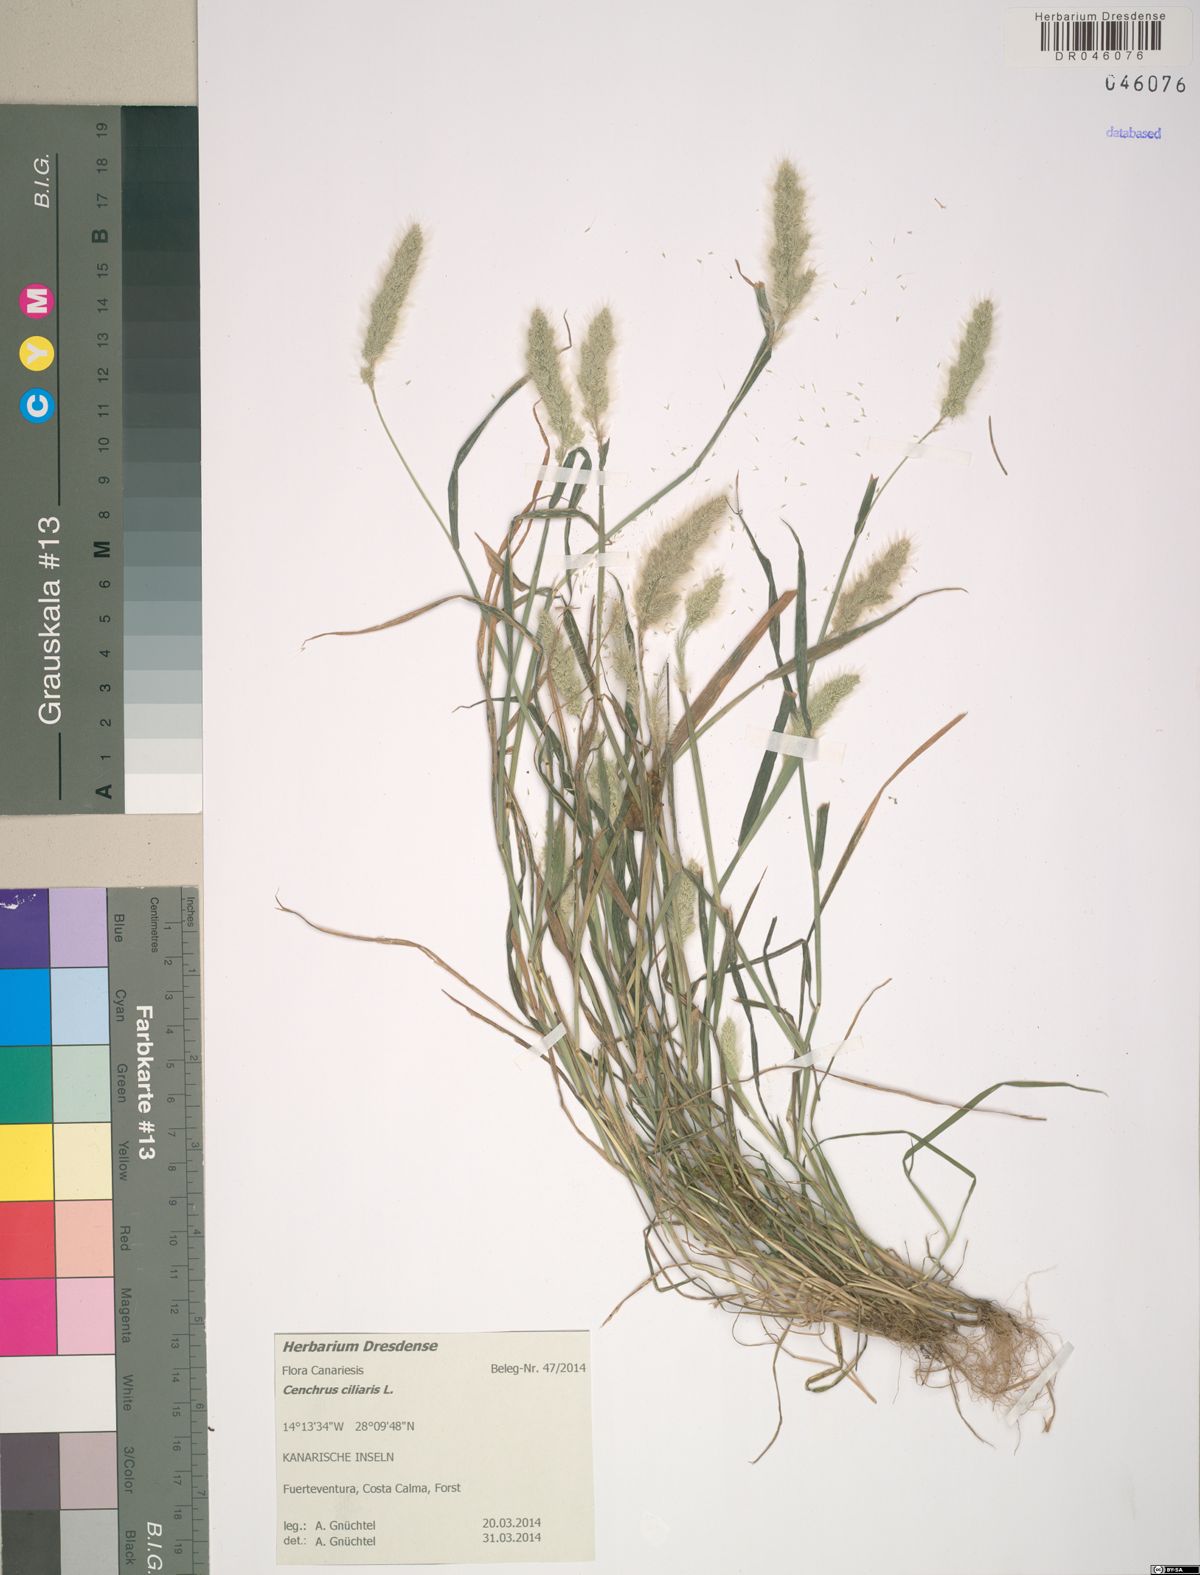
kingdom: Plantae
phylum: Tracheophyta
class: Liliopsida
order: Poales
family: Poaceae
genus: Cenchrus
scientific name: Cenchrus ciliaris
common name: Buffelgrass
